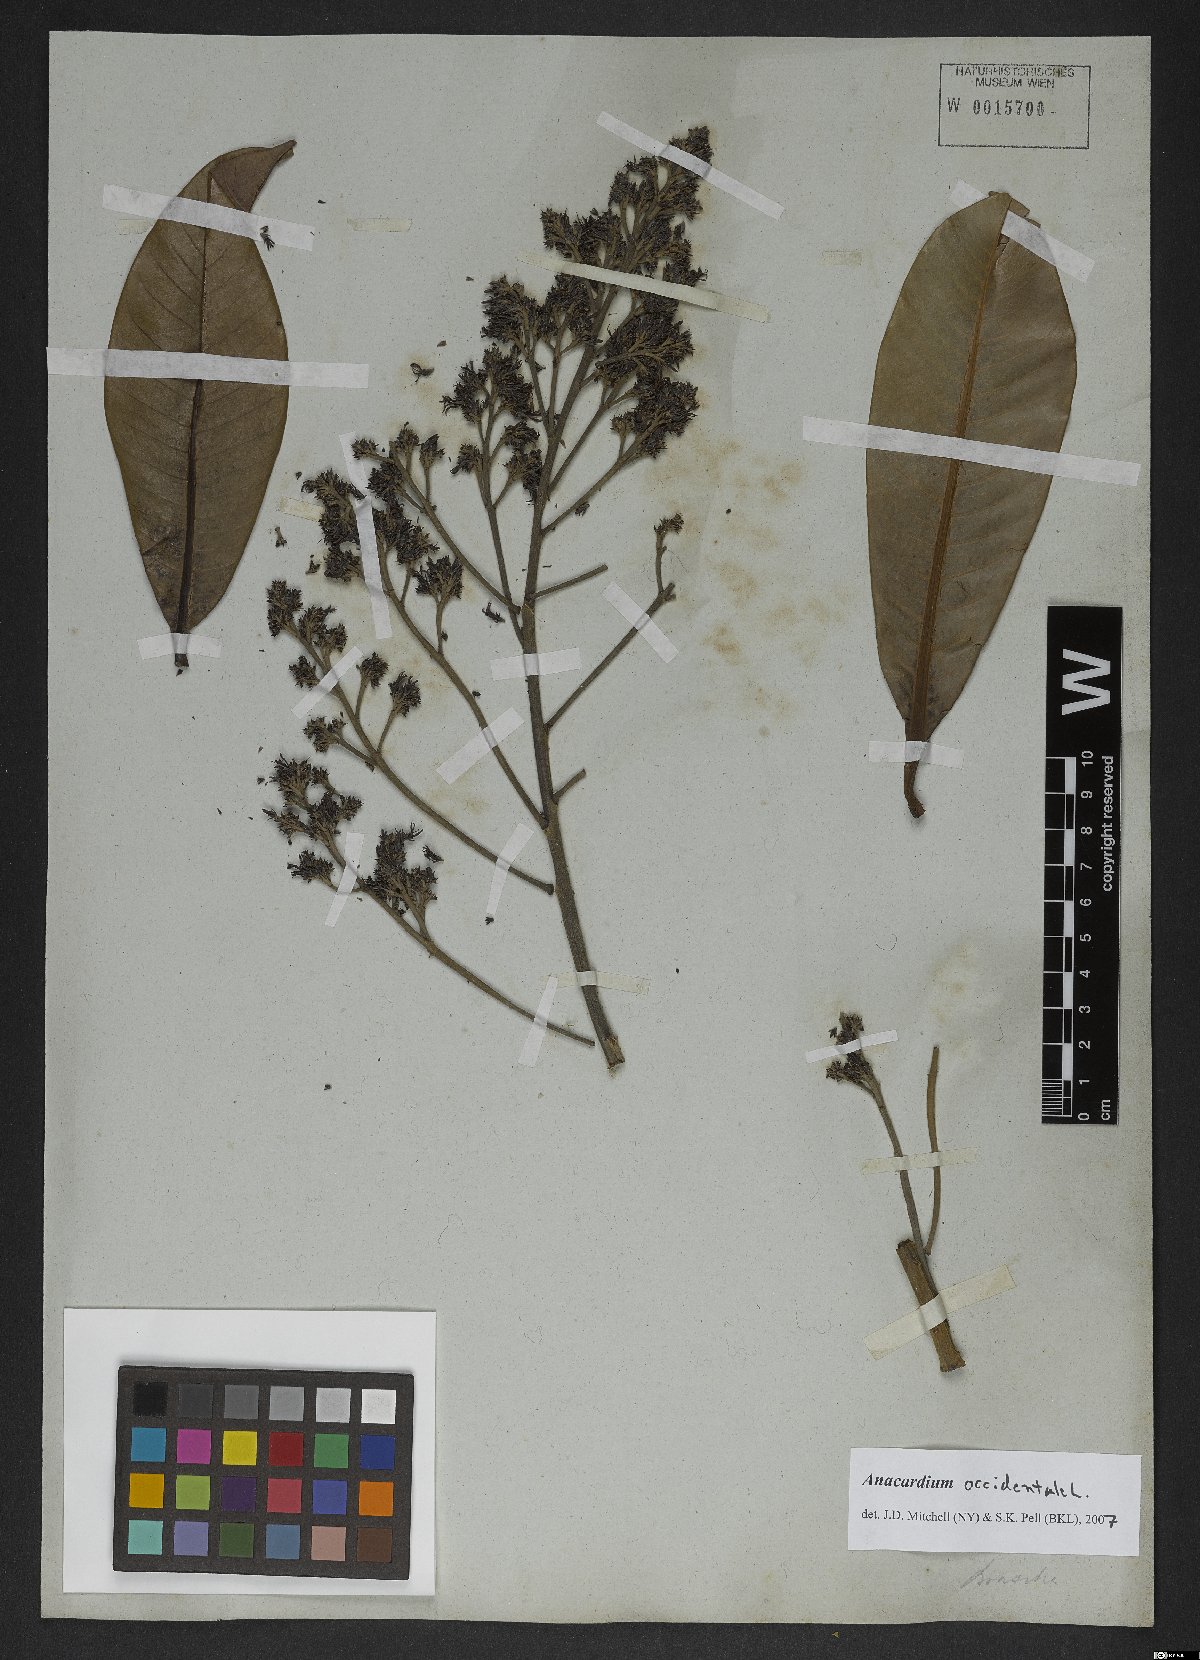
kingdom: Plantae
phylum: Tracheophyta
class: Magnoliopsida
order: Sapindales
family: Anacardiaceae
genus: Anacardium
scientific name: Anacardium occidentale
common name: Cashew
